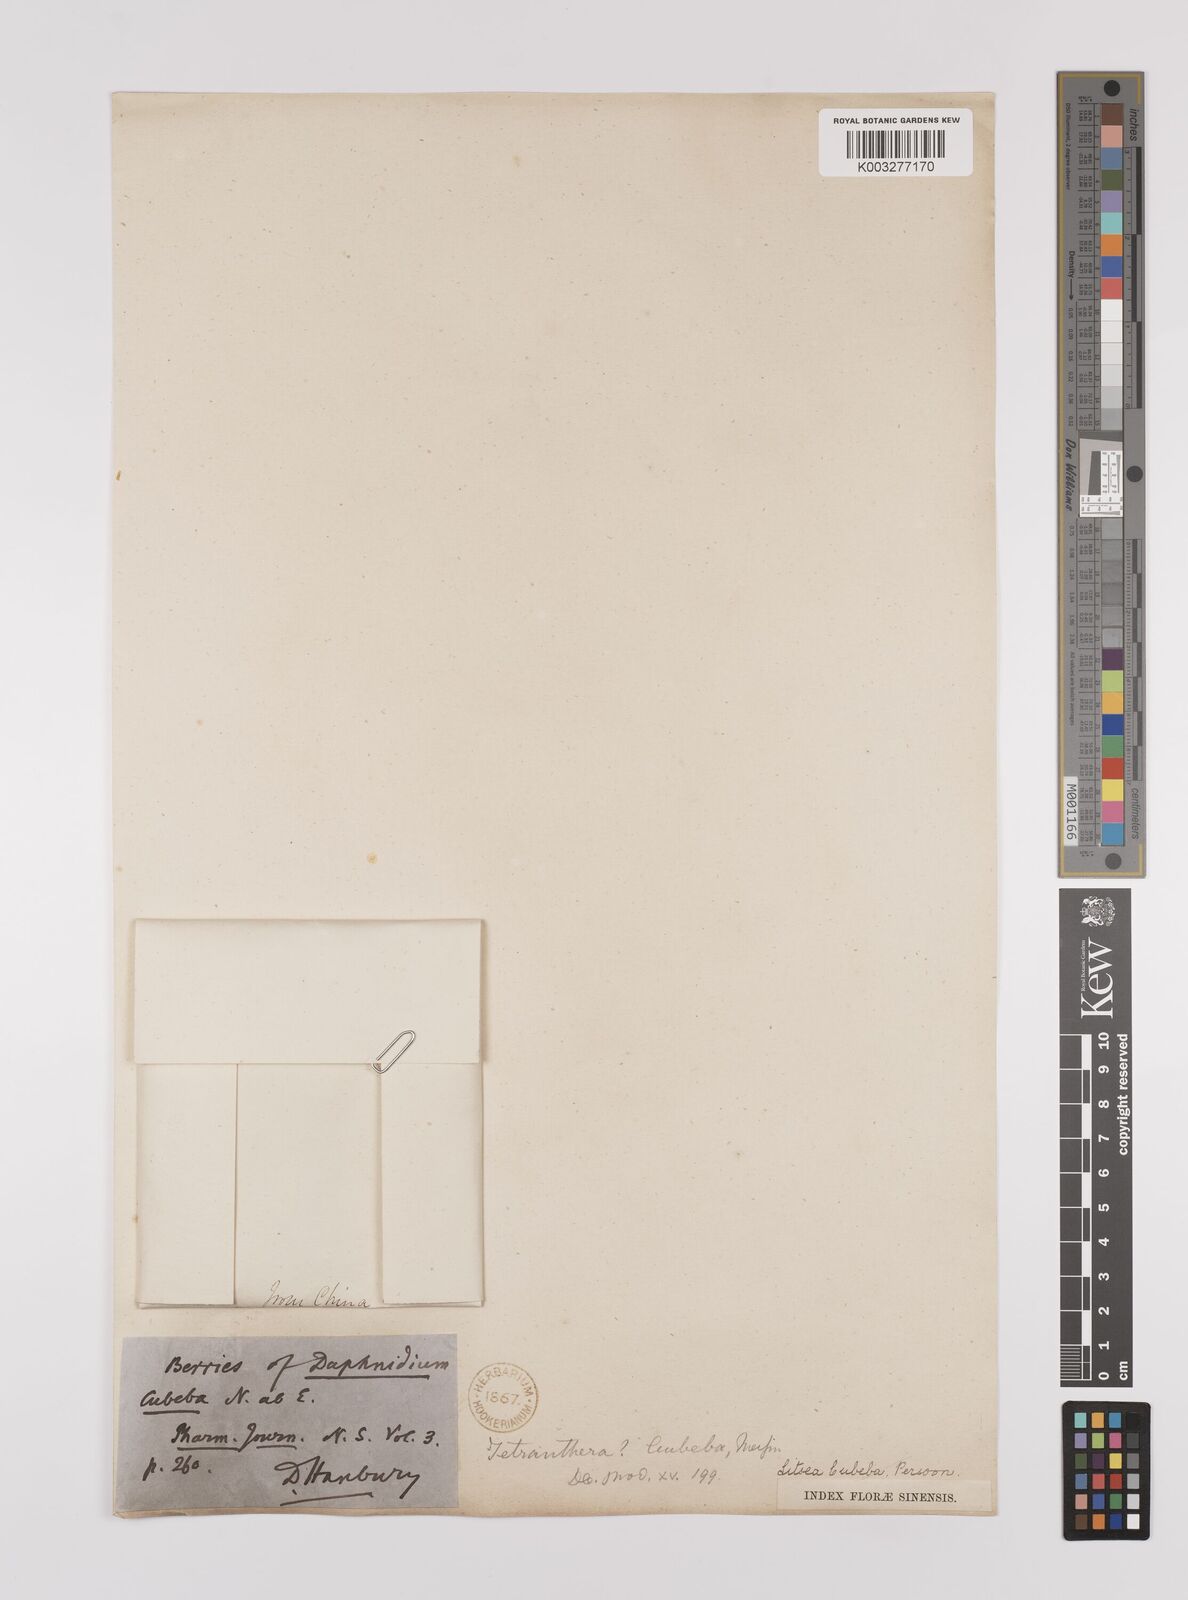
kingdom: Plantae
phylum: Tracheophyta
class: Magnoliopsida
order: Laurales
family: Lauraceae
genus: Litsea
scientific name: Litsea cubeba
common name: Mountain-pepper
